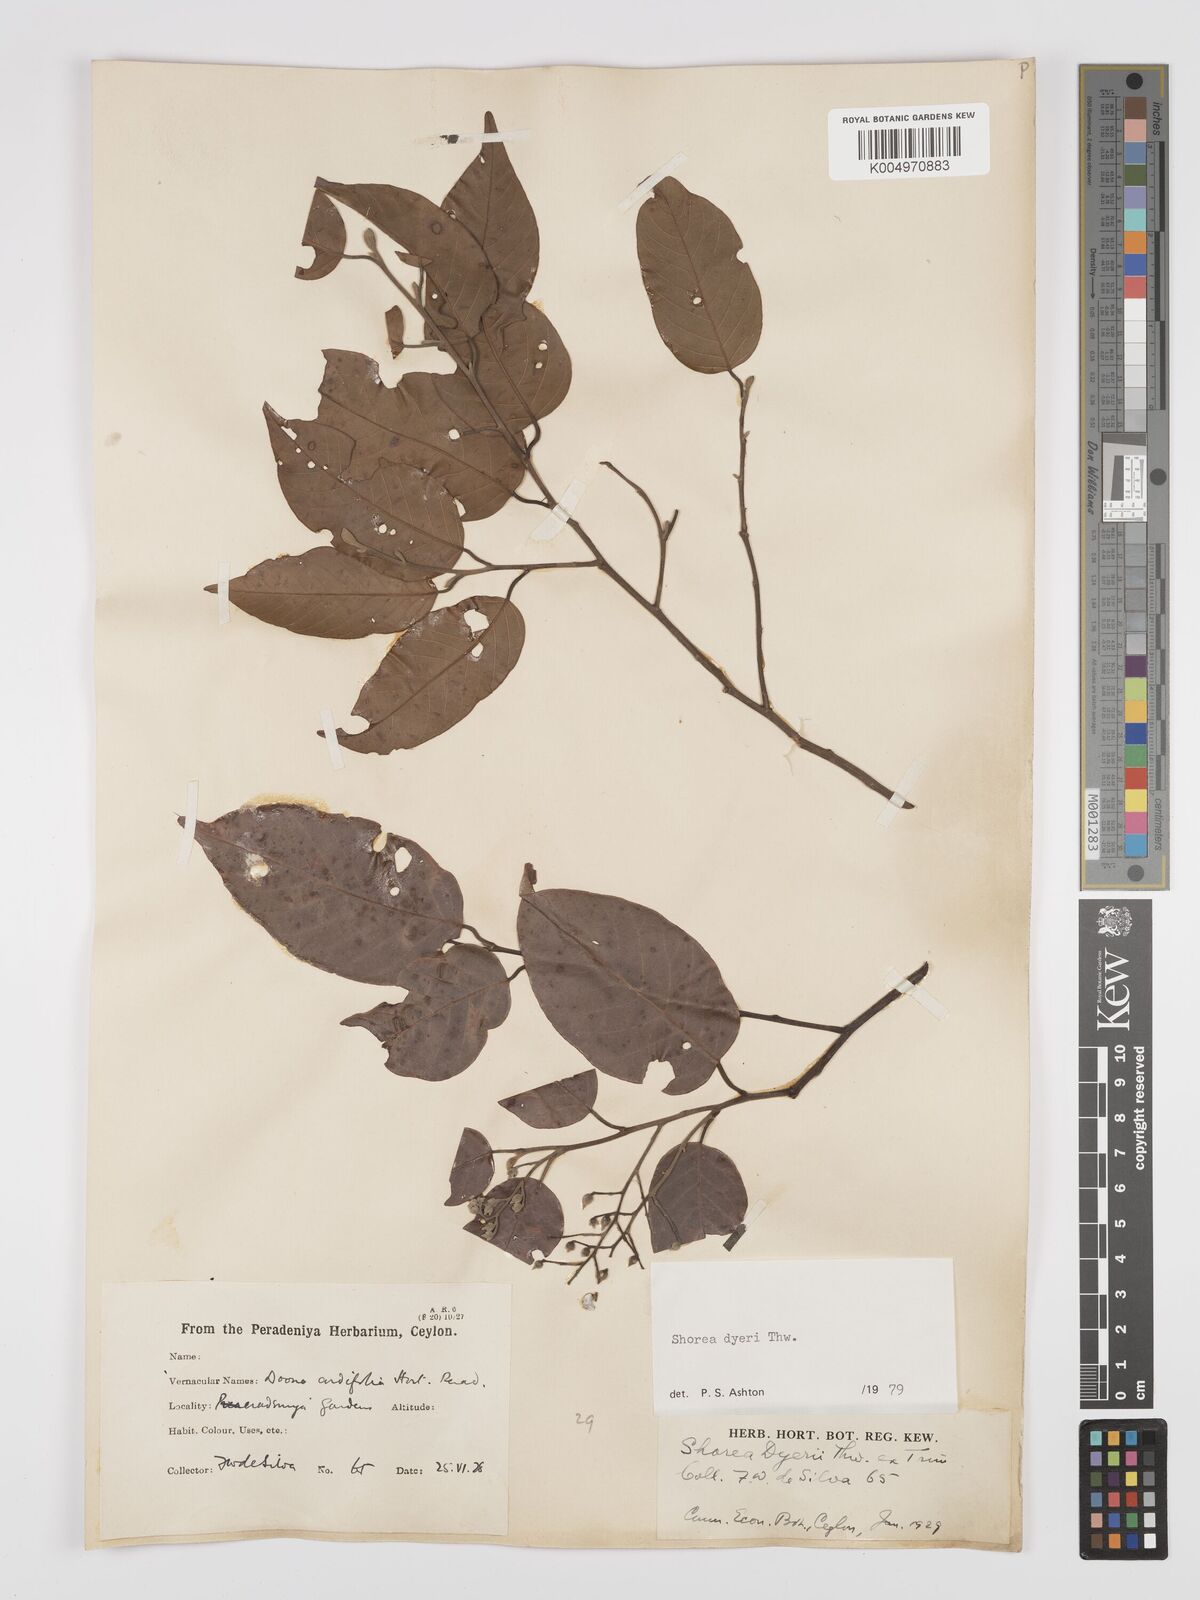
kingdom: Plantae
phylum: Tracheophyta
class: Magnoliopsida
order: Malvales
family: Dipterocarpaceae
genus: Shorea
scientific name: Shorea dyeri
